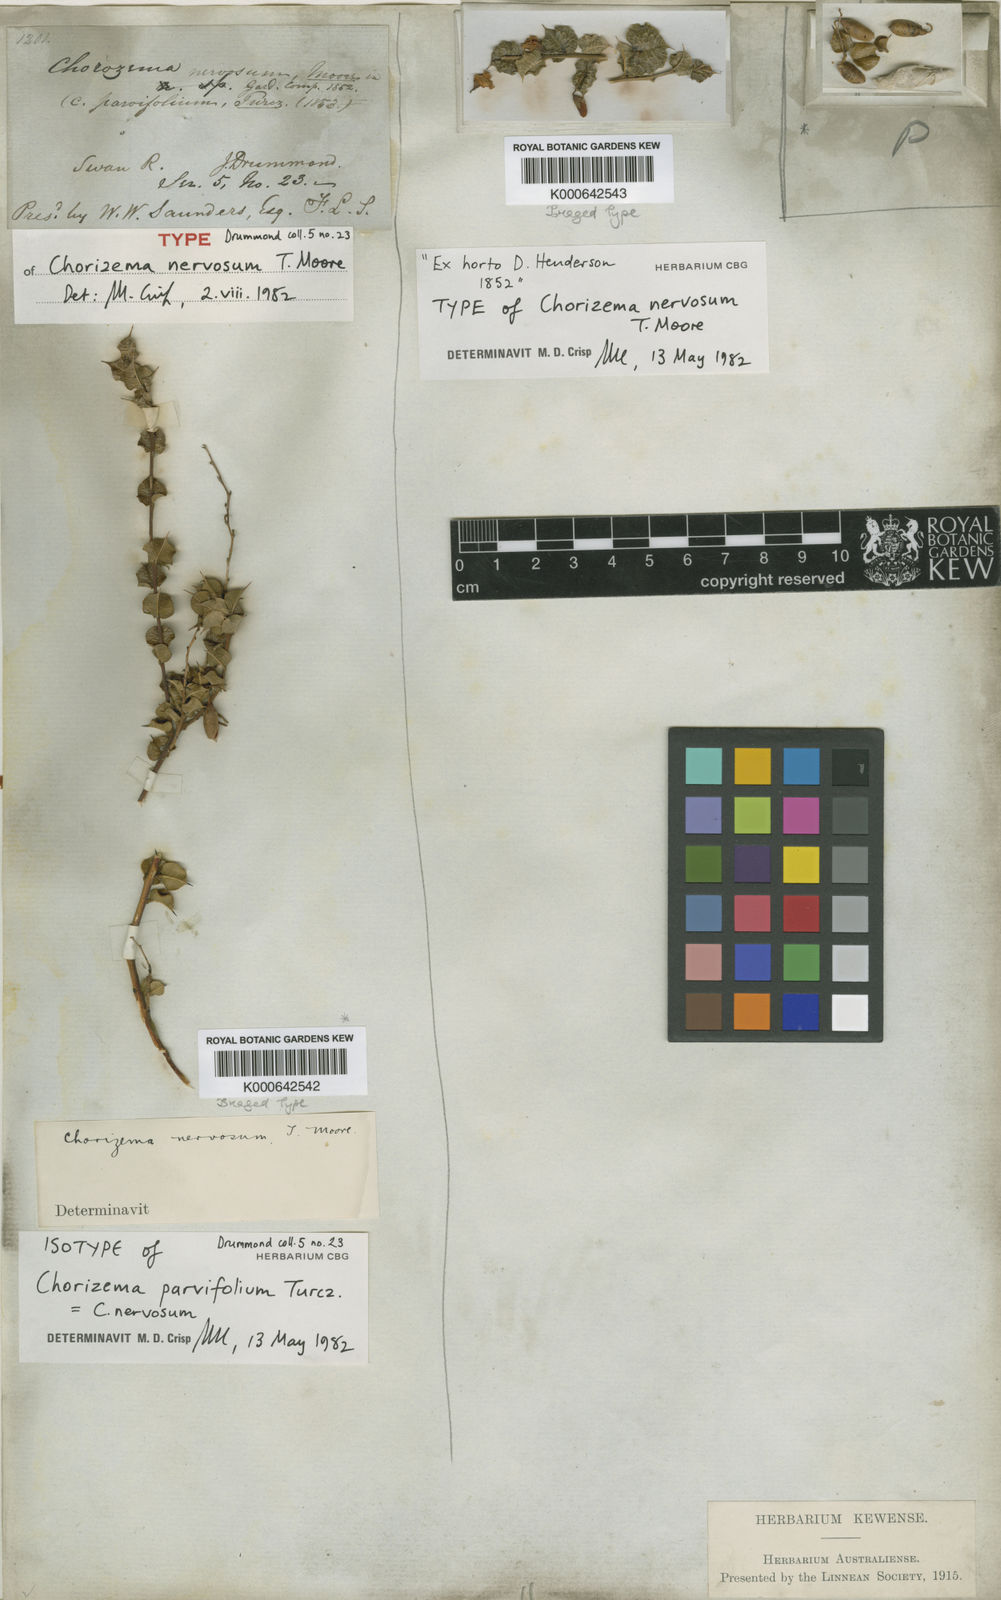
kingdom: Plantae
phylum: Tracheophyta
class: Magnoliopsida
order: Fabales
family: Fabaceae
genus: Chorizema
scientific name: Chorizema nervosum
